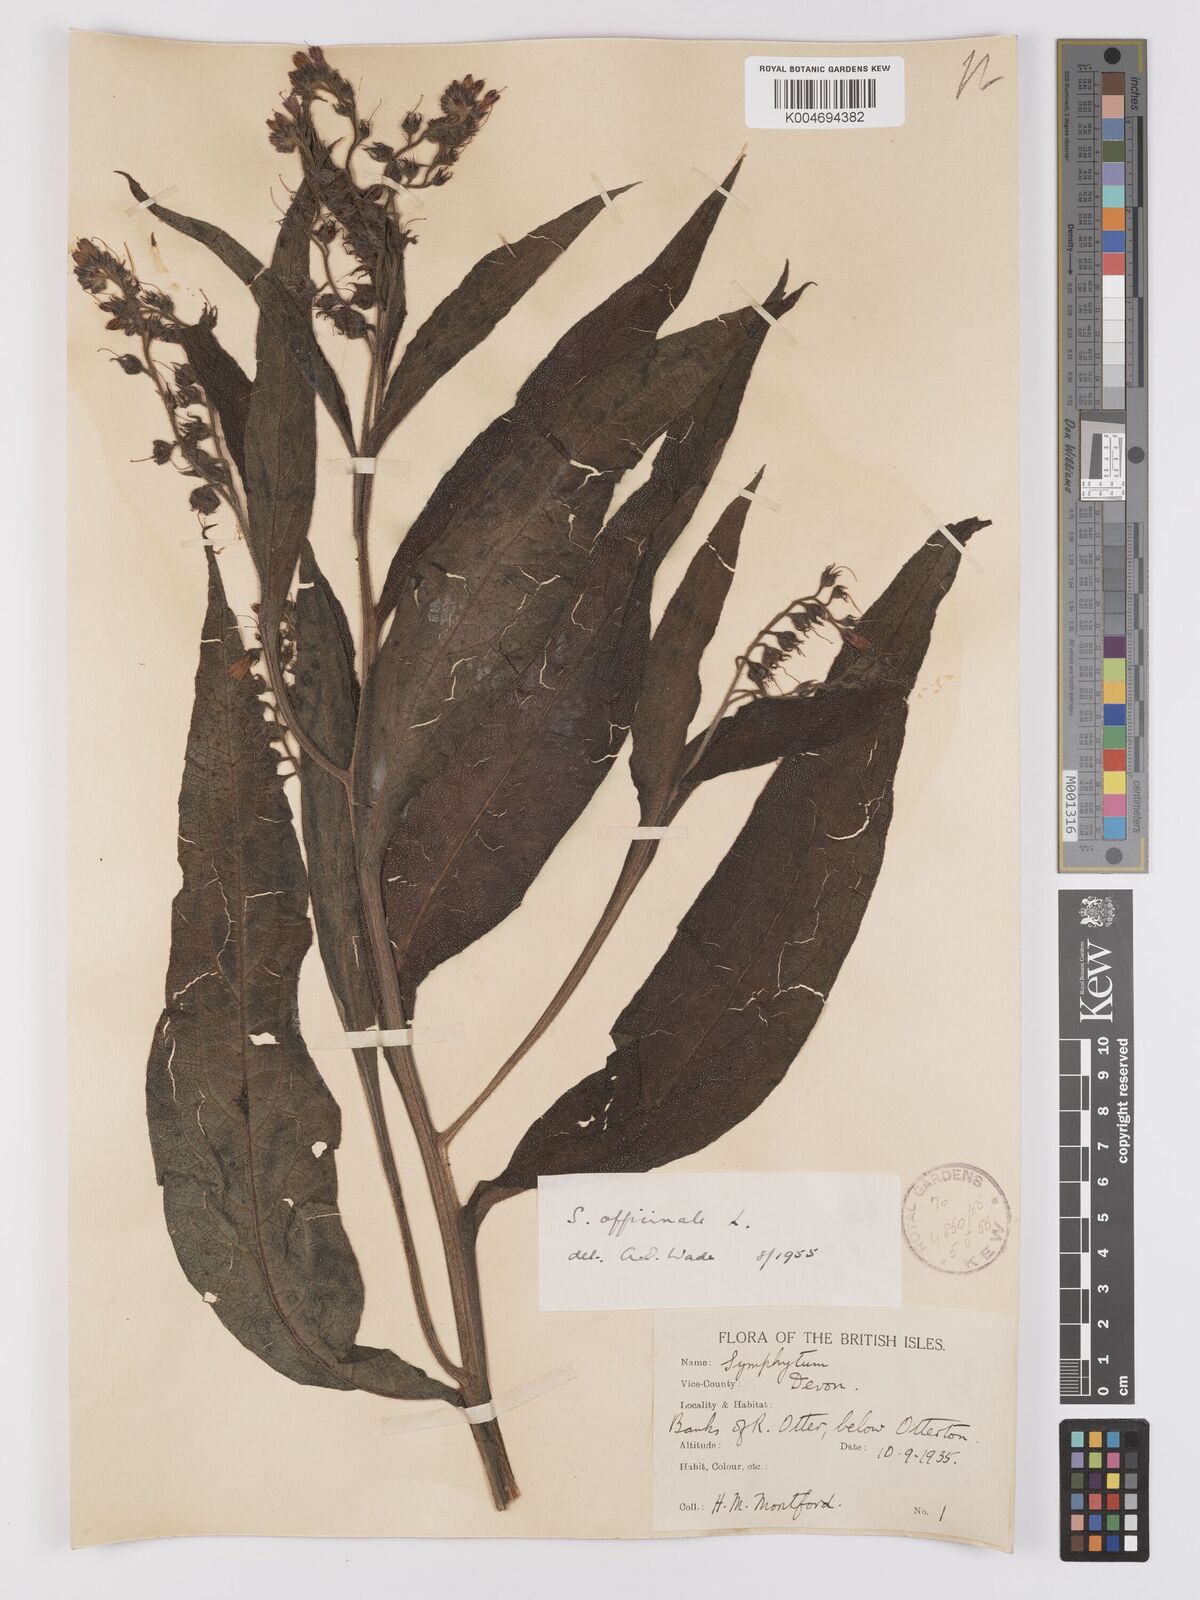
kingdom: Plantae
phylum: Tracheophyta
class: Magnoliopsida
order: Boraginales
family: Boraginaceae
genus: Symphytum
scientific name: Symphytum officinale
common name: Common comfrey
